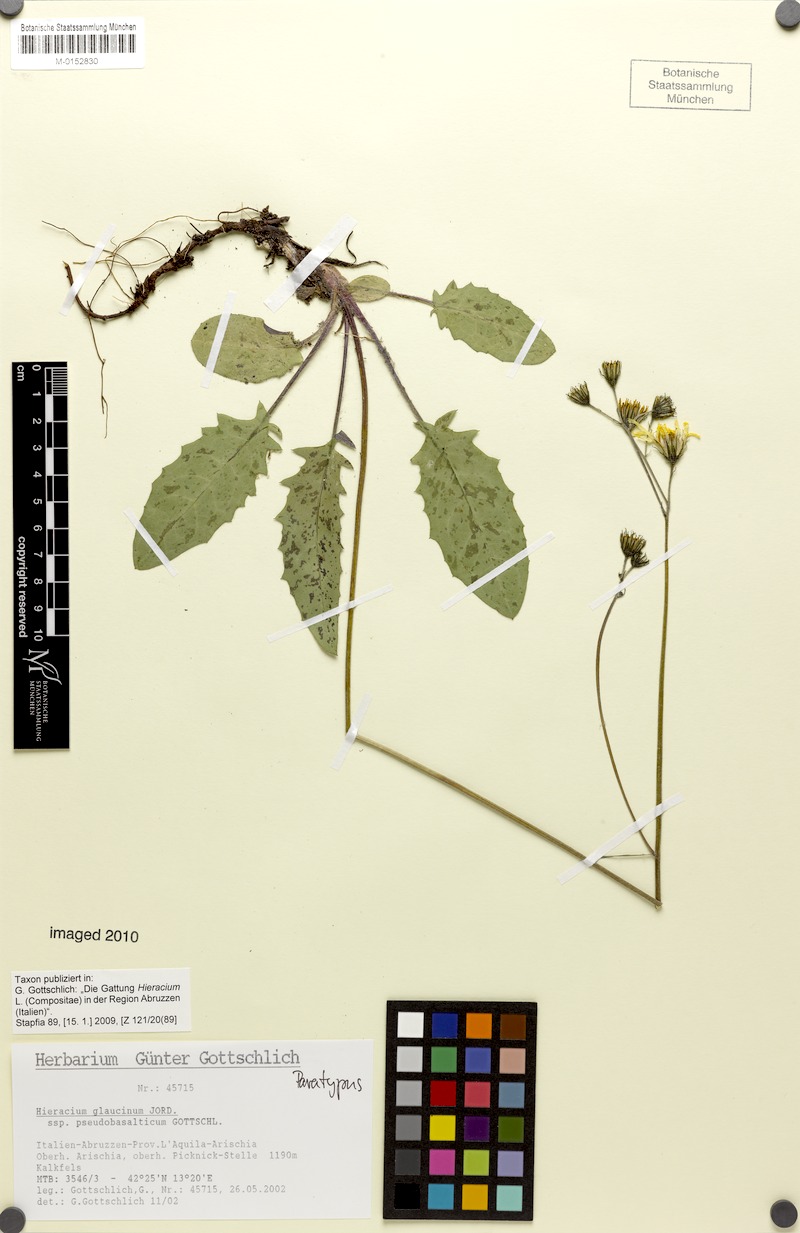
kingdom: Plantae
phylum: Tracheophyta
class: Magnoliopsida
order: Asterales
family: Asteraceae
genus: Hieracium
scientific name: Hieracium glaucinum
